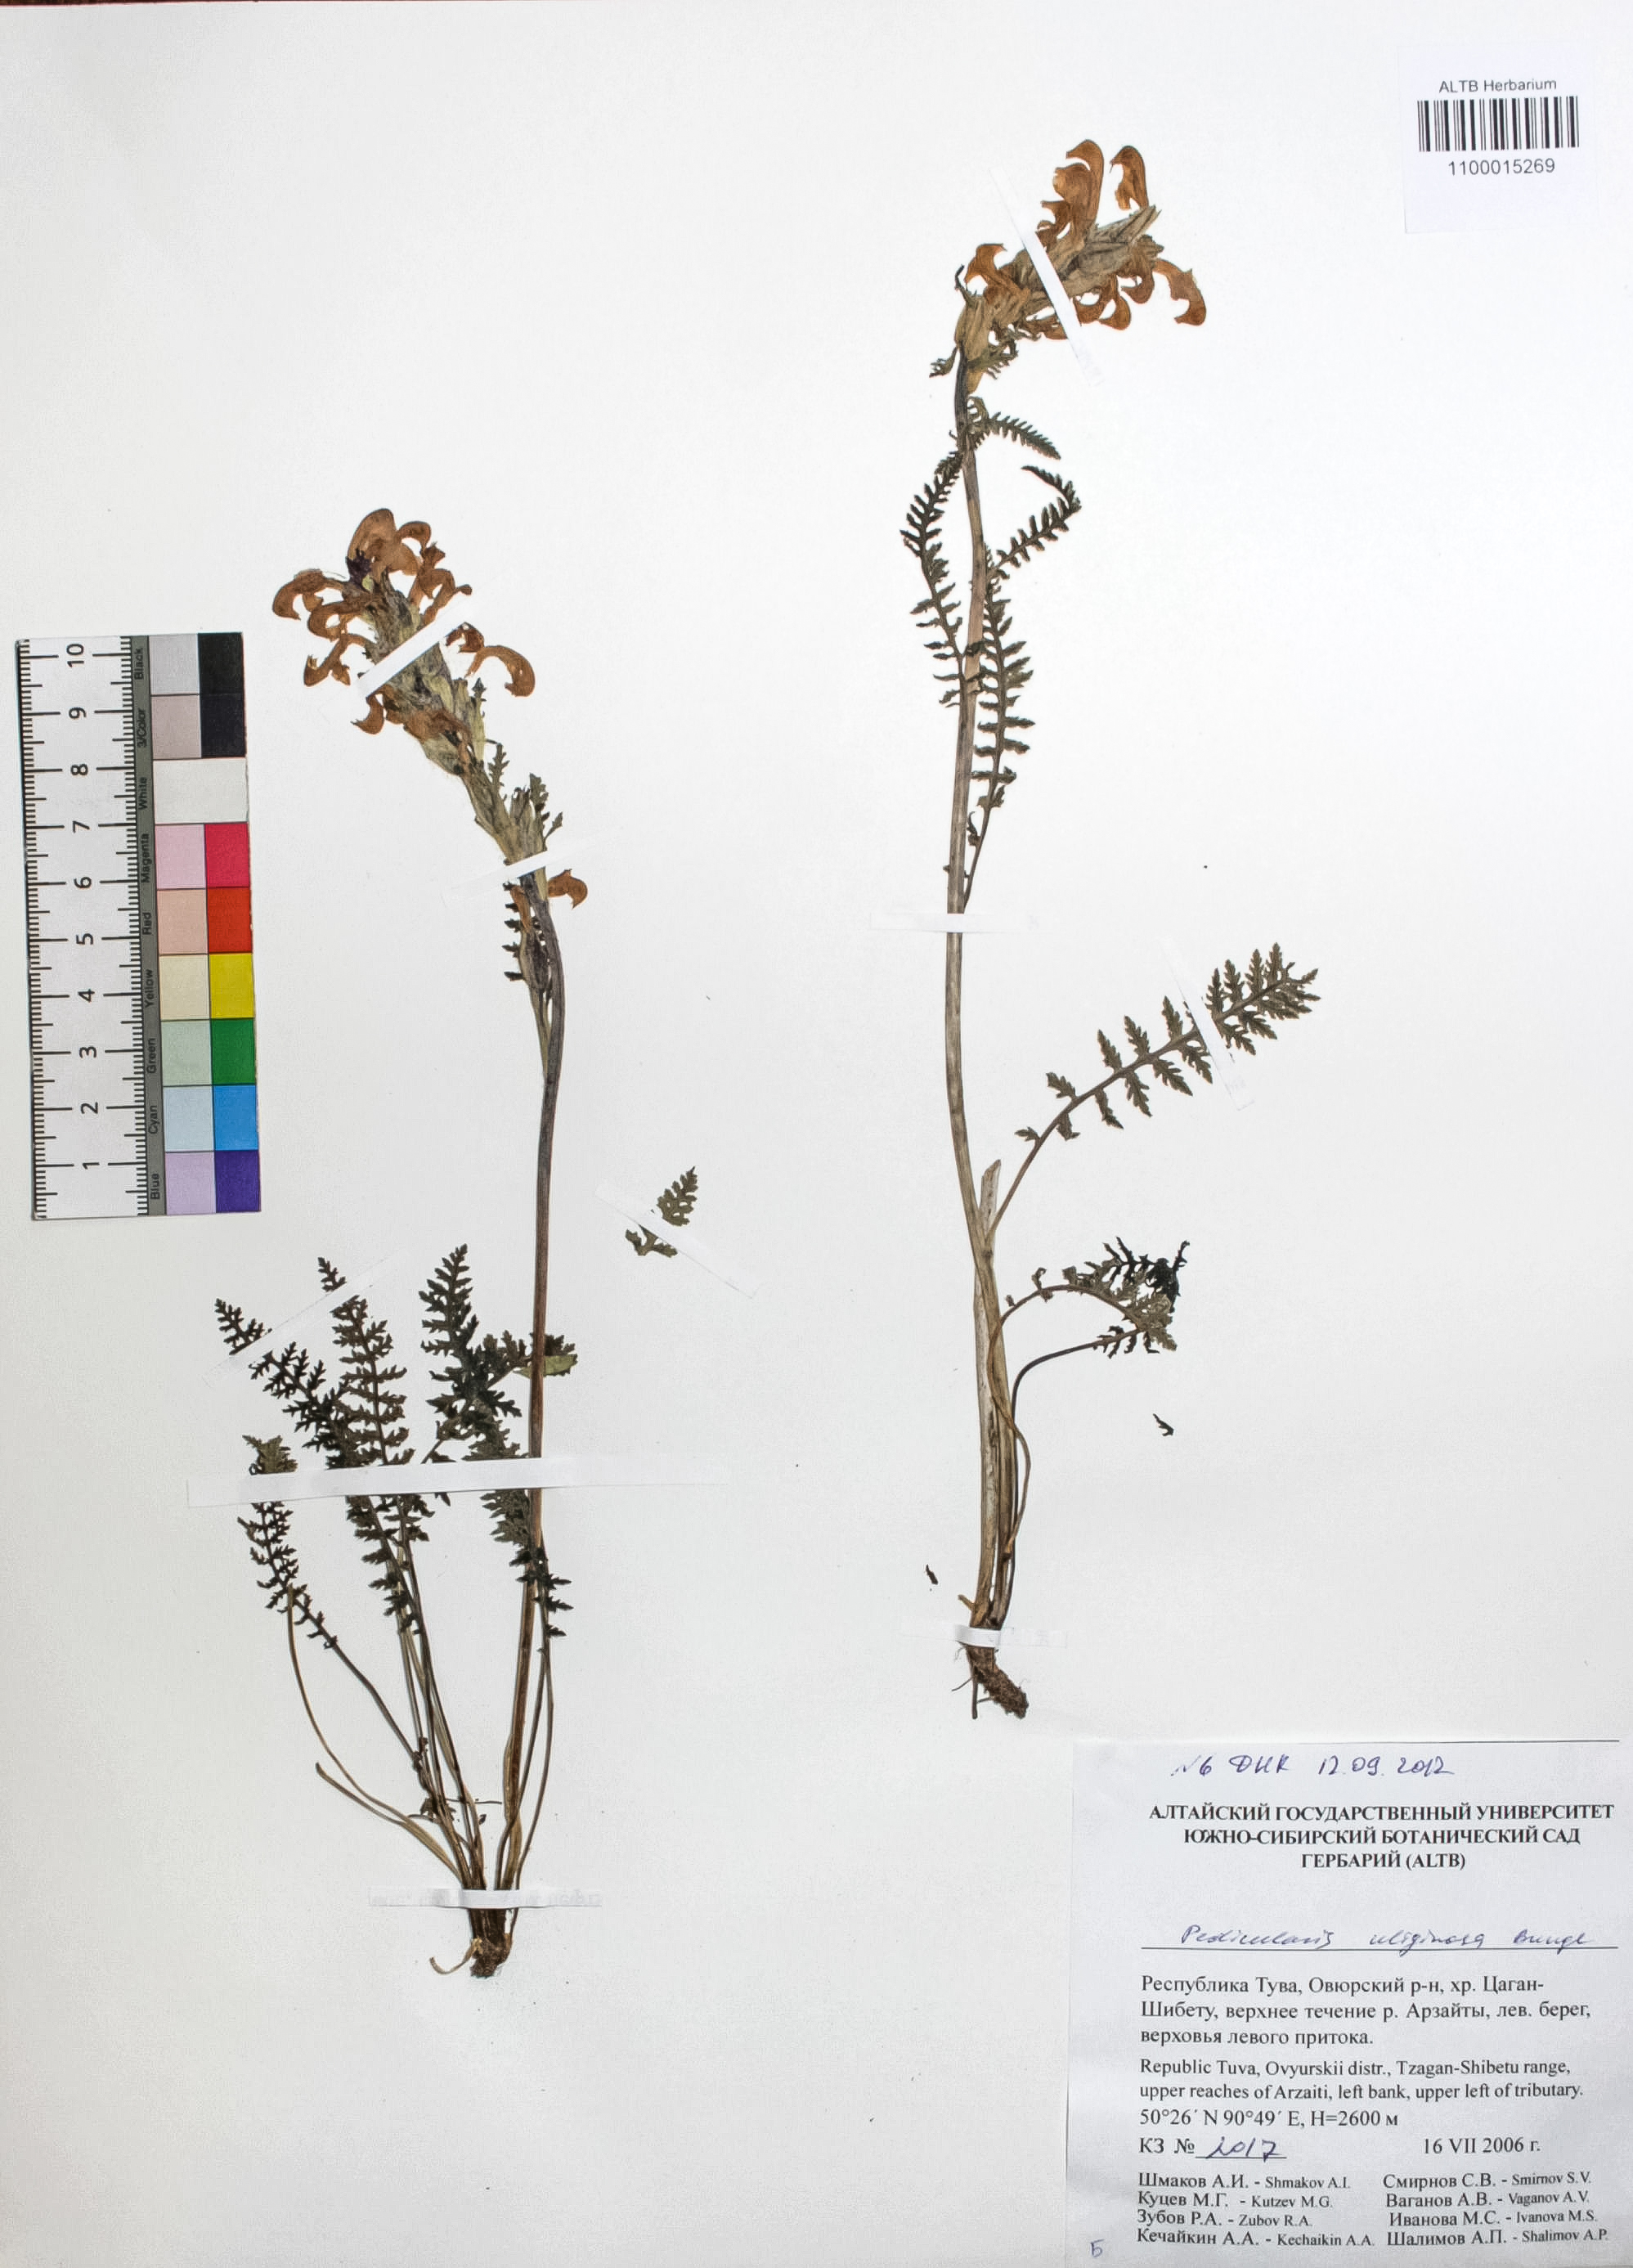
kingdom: Plantae
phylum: Tracheophyta
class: Magnoliopsida
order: Lamiales
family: Orobanchaceae
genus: Pedicularis
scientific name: Pedicularis uliginosa
